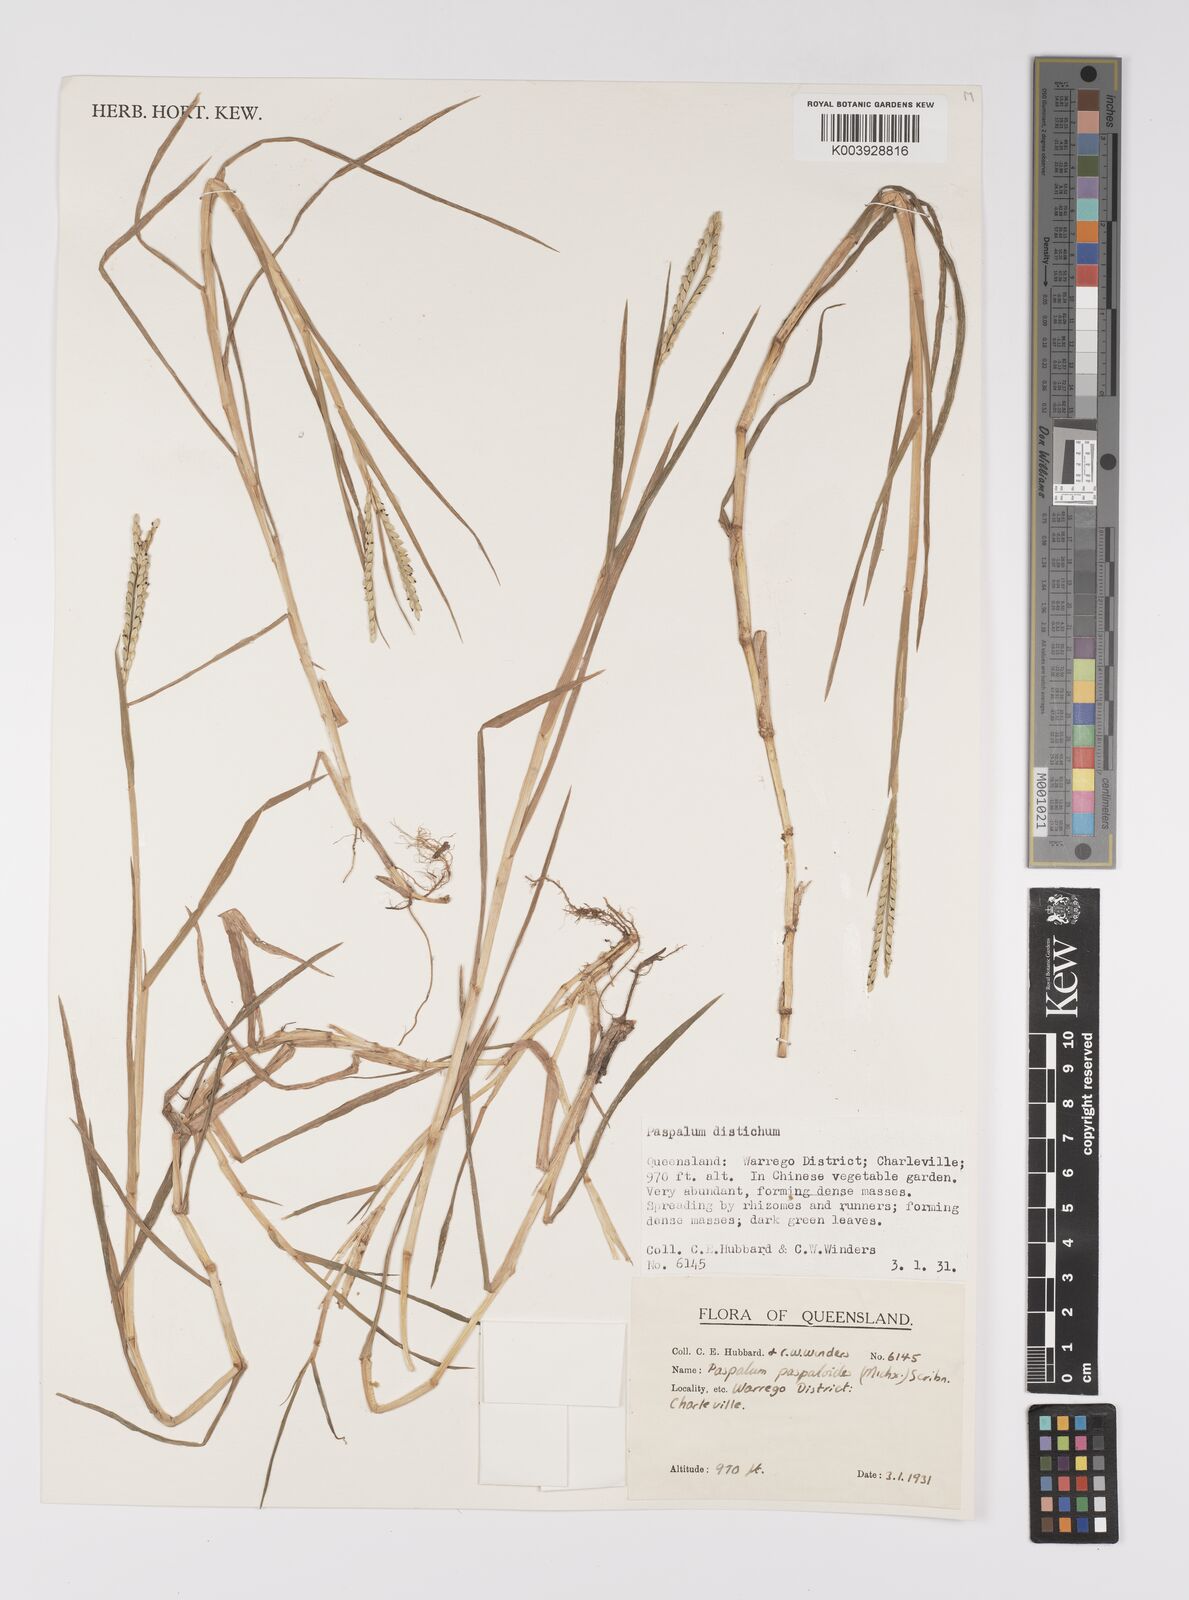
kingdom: Plantae
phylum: Tracheophyta
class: Liliopsida
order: Poales
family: Poaceae
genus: Paspalum
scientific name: Paspalum distichum
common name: Knotgrass
